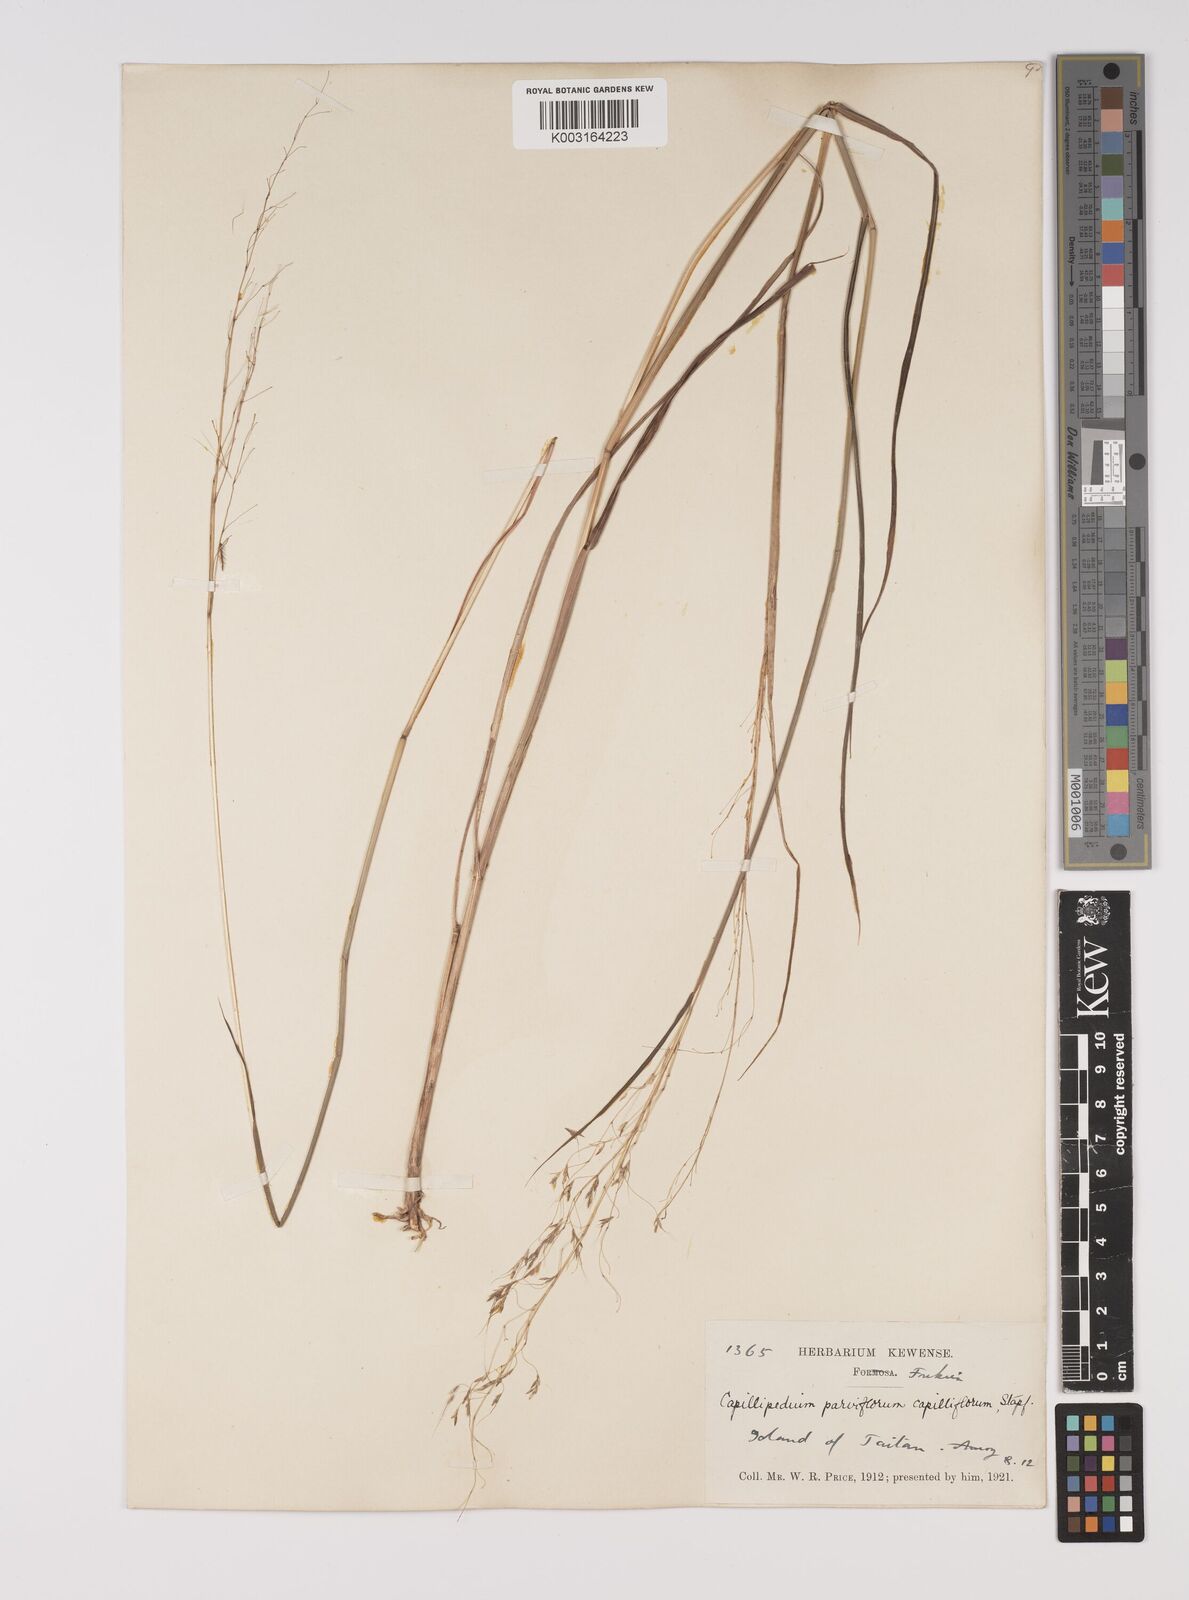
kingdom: Plantae
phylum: Tracheophyta
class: Liliopsida
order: Poales
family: Poaceae
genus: Capillipedium
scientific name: Capillipedium parviflorum
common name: Golden-beard
